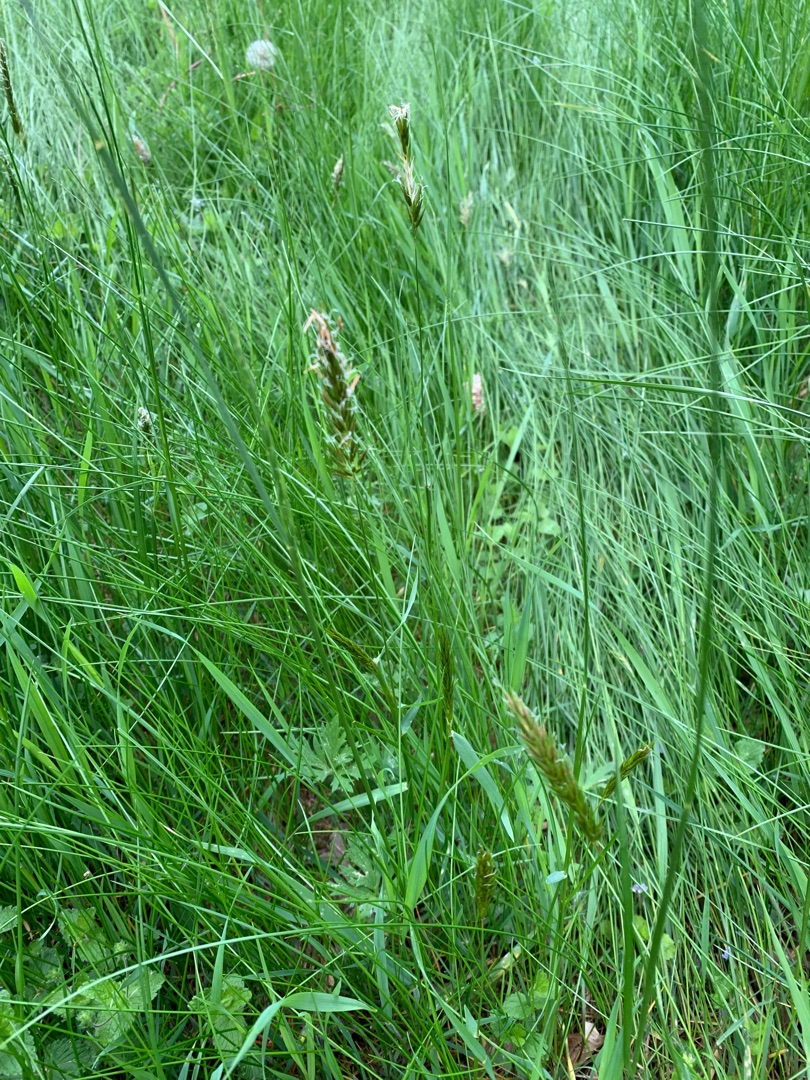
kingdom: Plantae
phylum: Tracheophyta
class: Liliopsida
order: Poales
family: Poaceae
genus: Anthoxanthum
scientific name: Anthoxanthum odoratum
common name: Vellugtende gulaks
